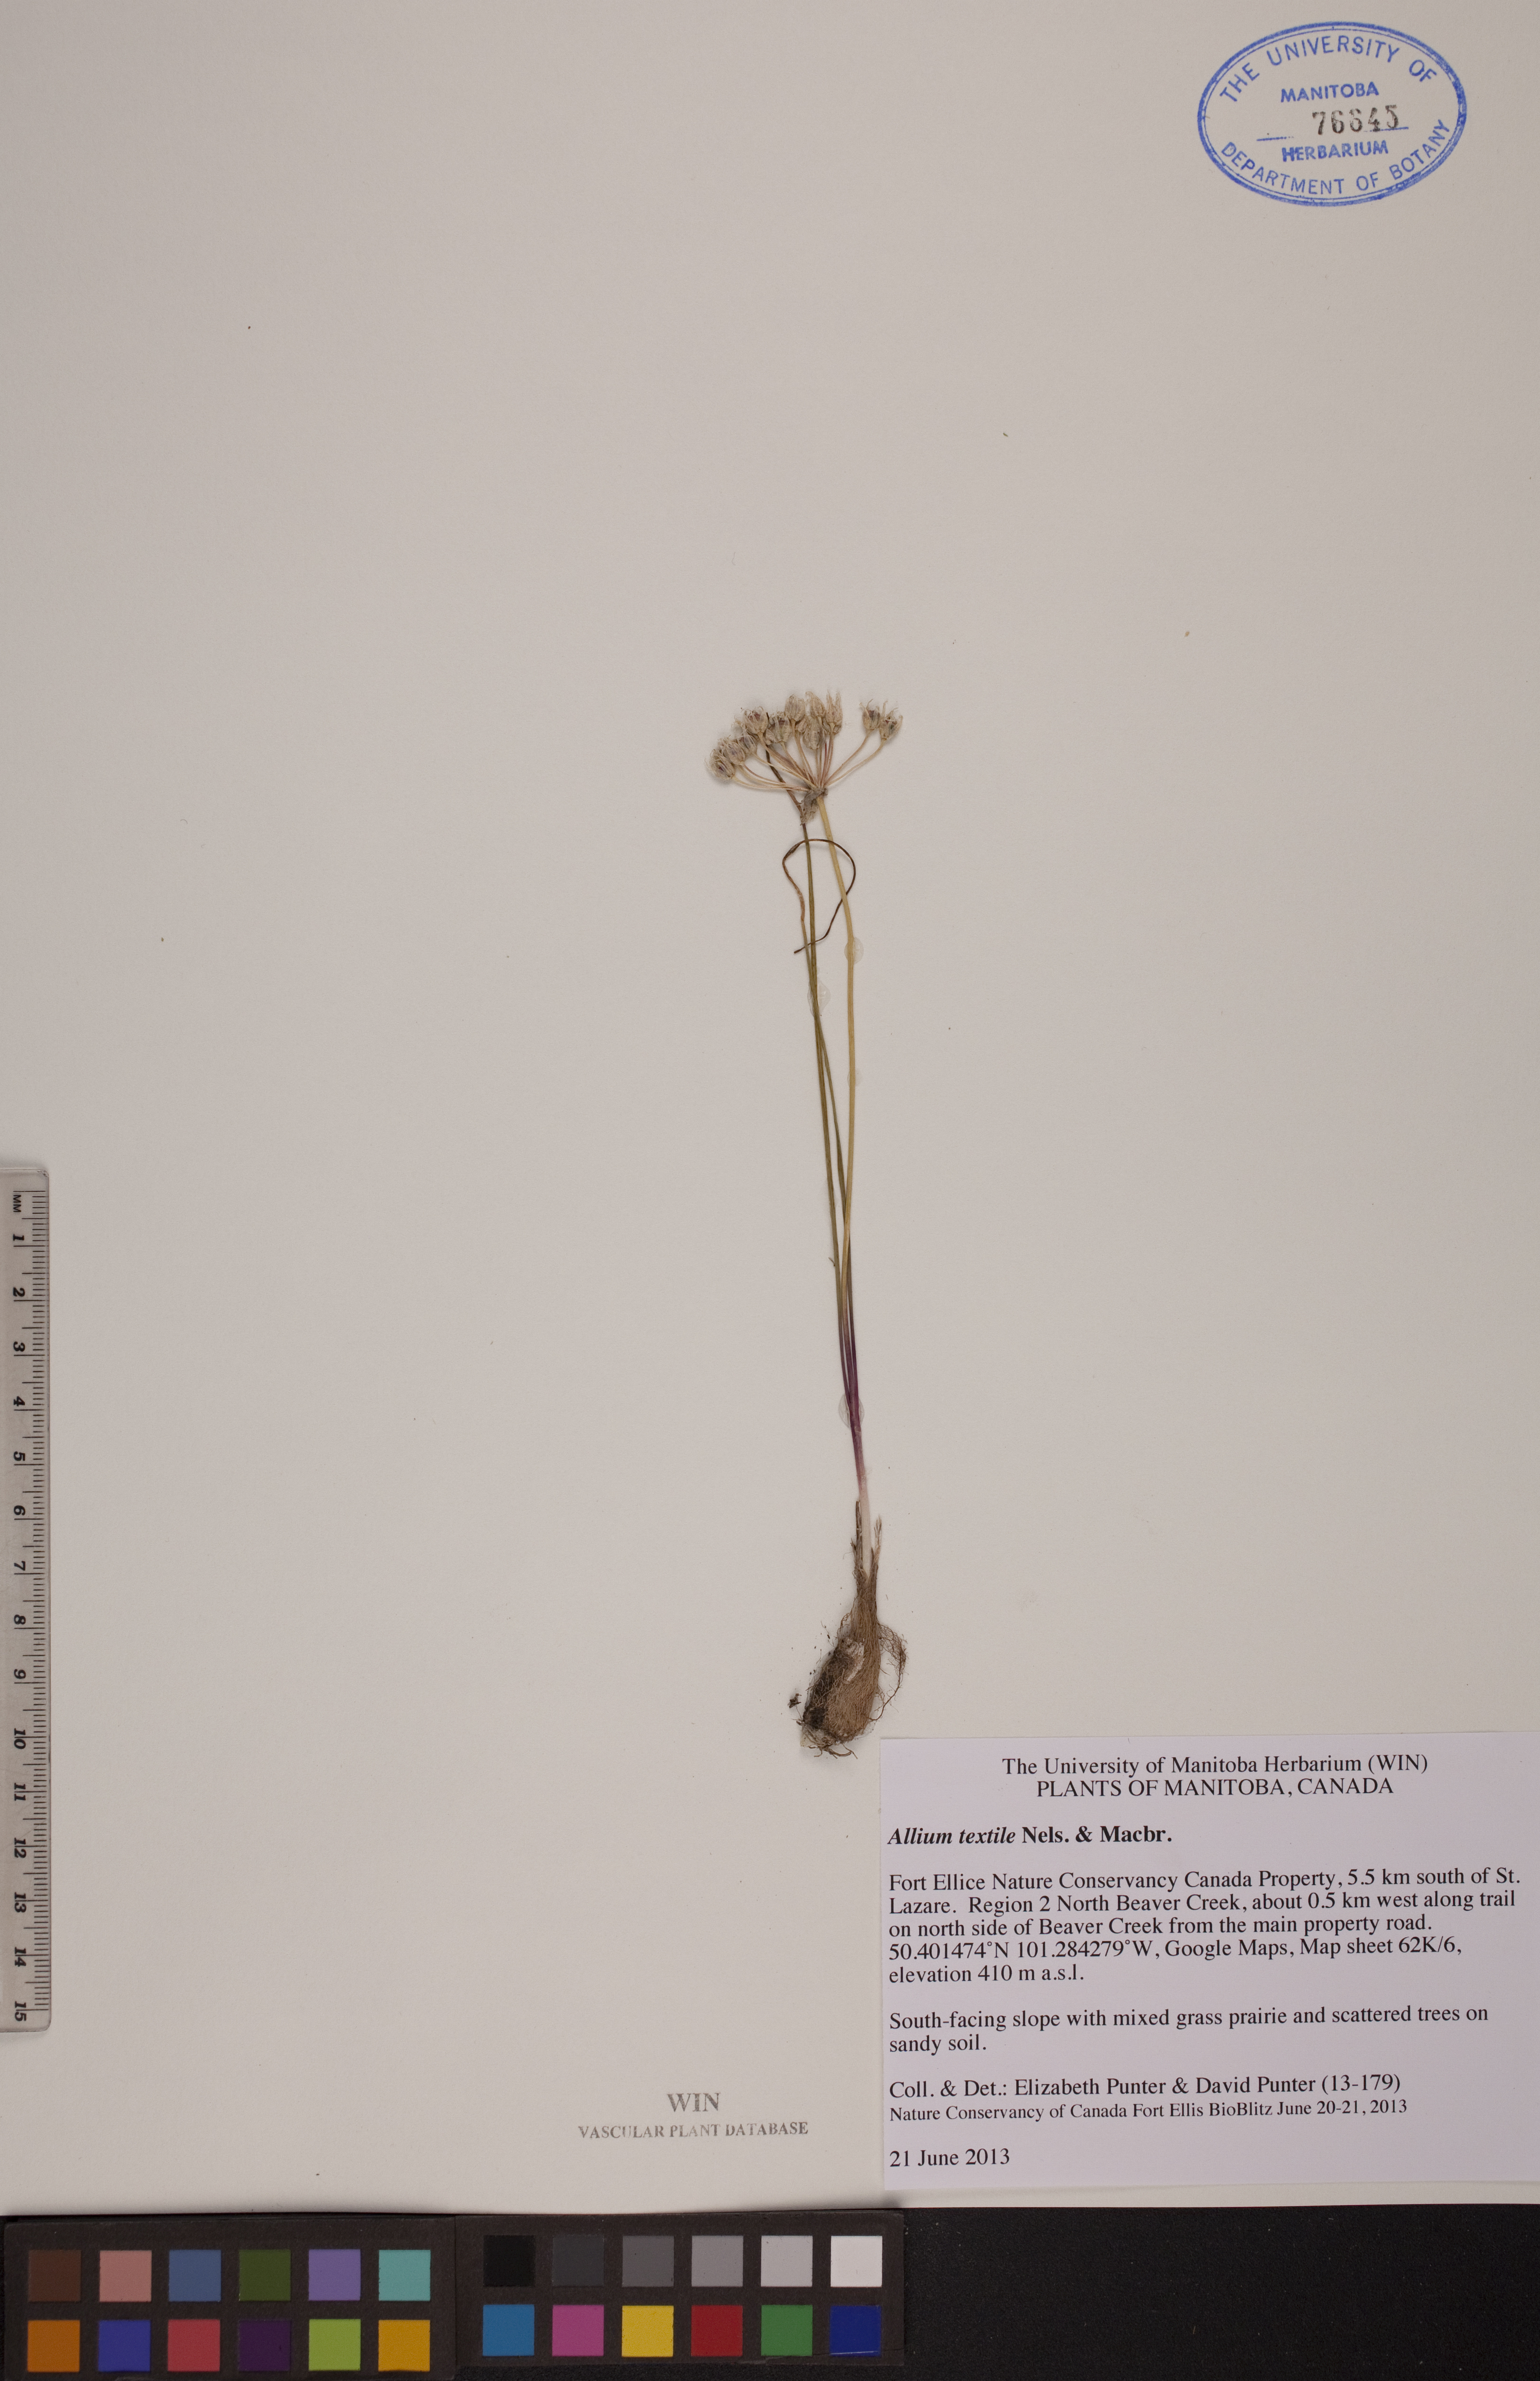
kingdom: Plantae
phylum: Tracheophyta
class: Liliopsida
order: Asparagales
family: Amaryllidaceae
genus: Allium
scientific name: Allium textile
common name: Prairie onion
